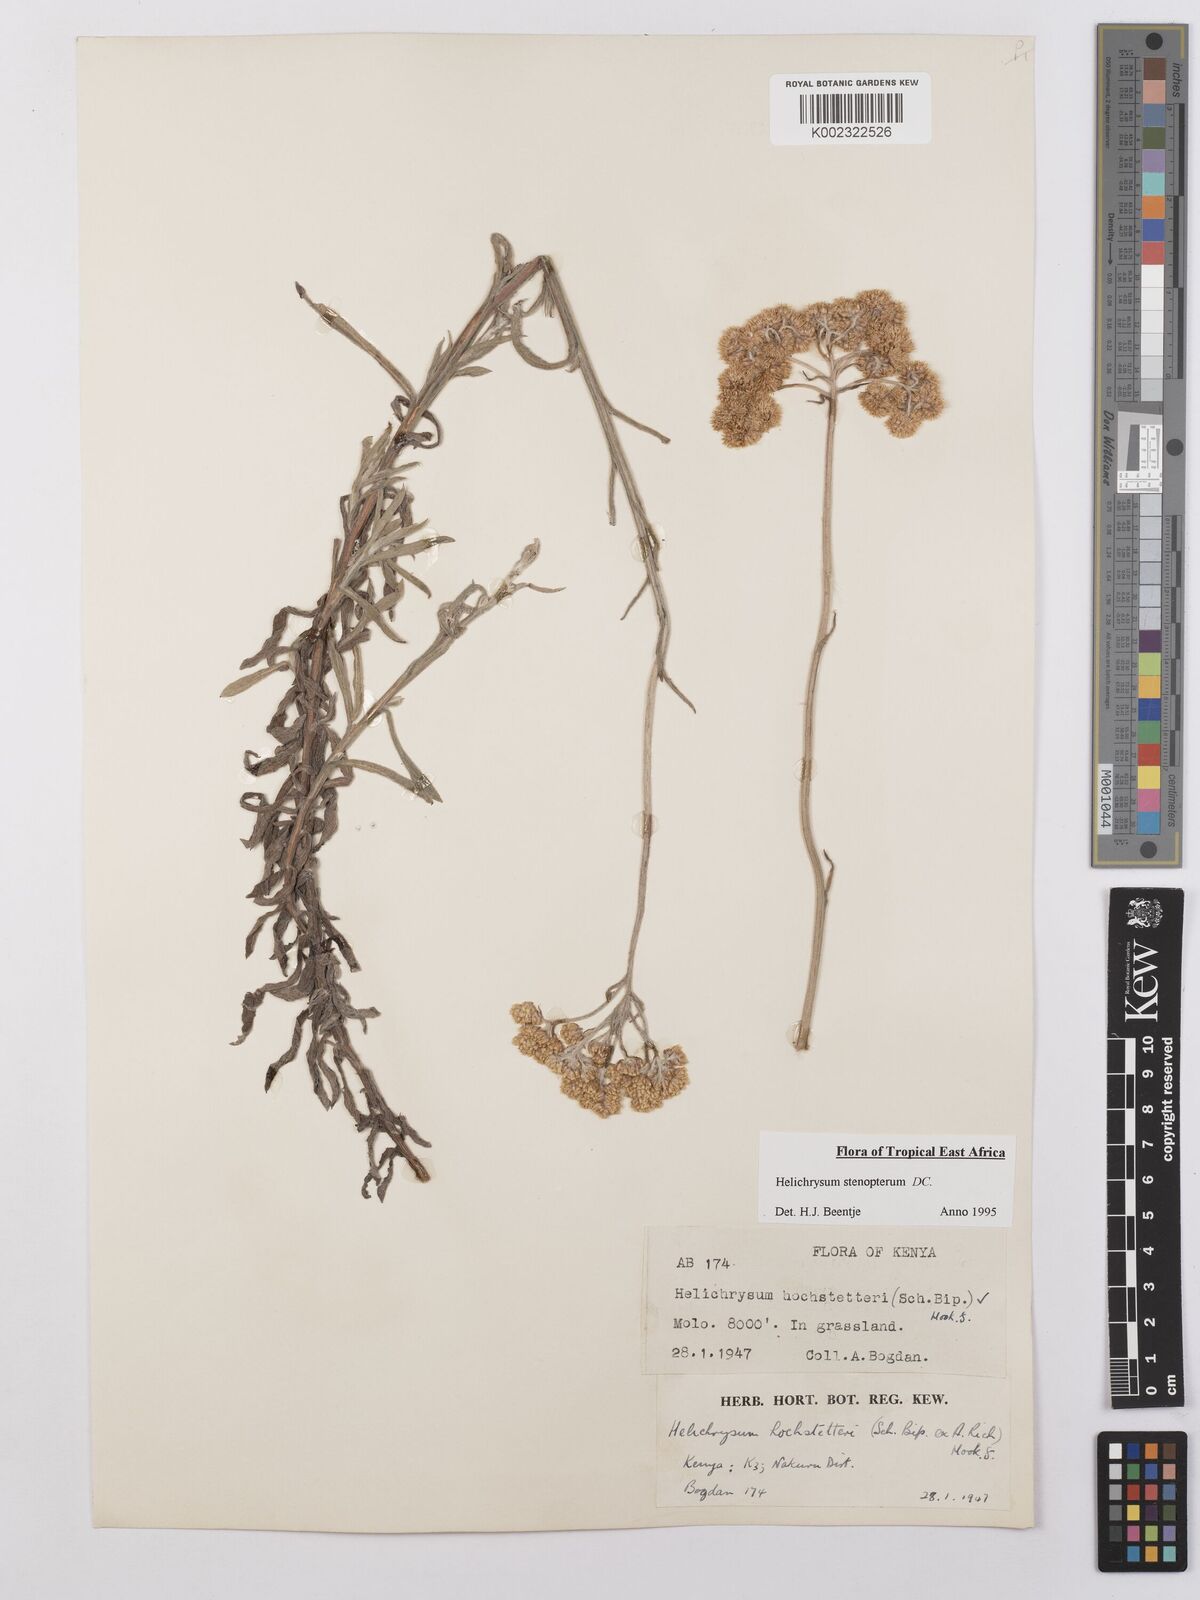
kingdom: Plantae
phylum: Tracheophyta
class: Magnoliopsida
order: Asterales
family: Asteraceae
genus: Helichrysum
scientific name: Helichrysum stenopterum
